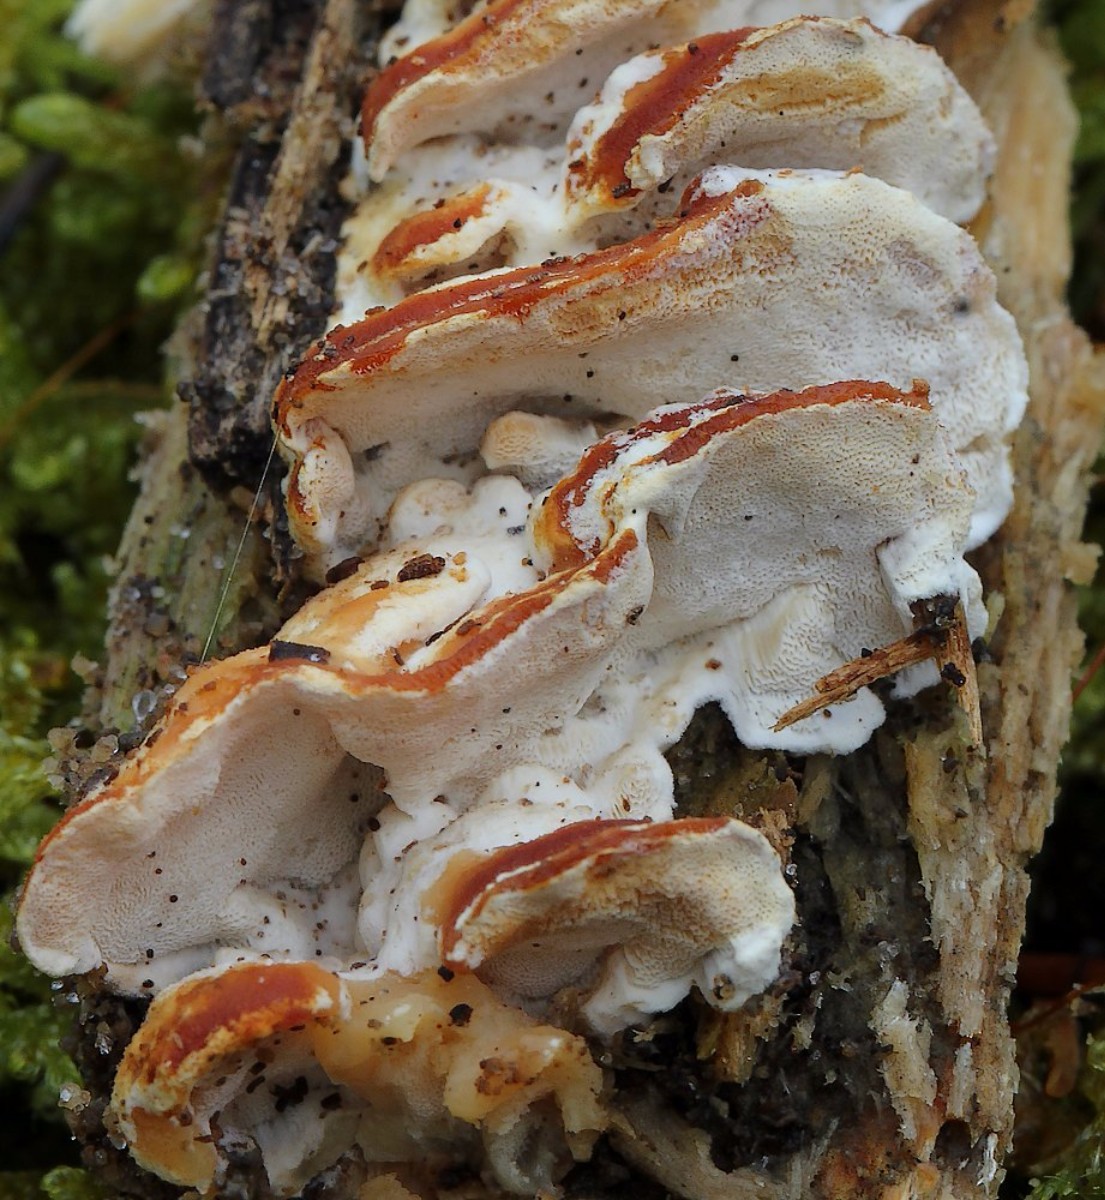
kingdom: Fungi
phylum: Basidiomycota
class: Agaricomycetes
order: Polyporales
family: Incrustoporiaceae
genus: Skeletocutis
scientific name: Skeletocutis nemoralis
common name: stor krystalporesvamp
